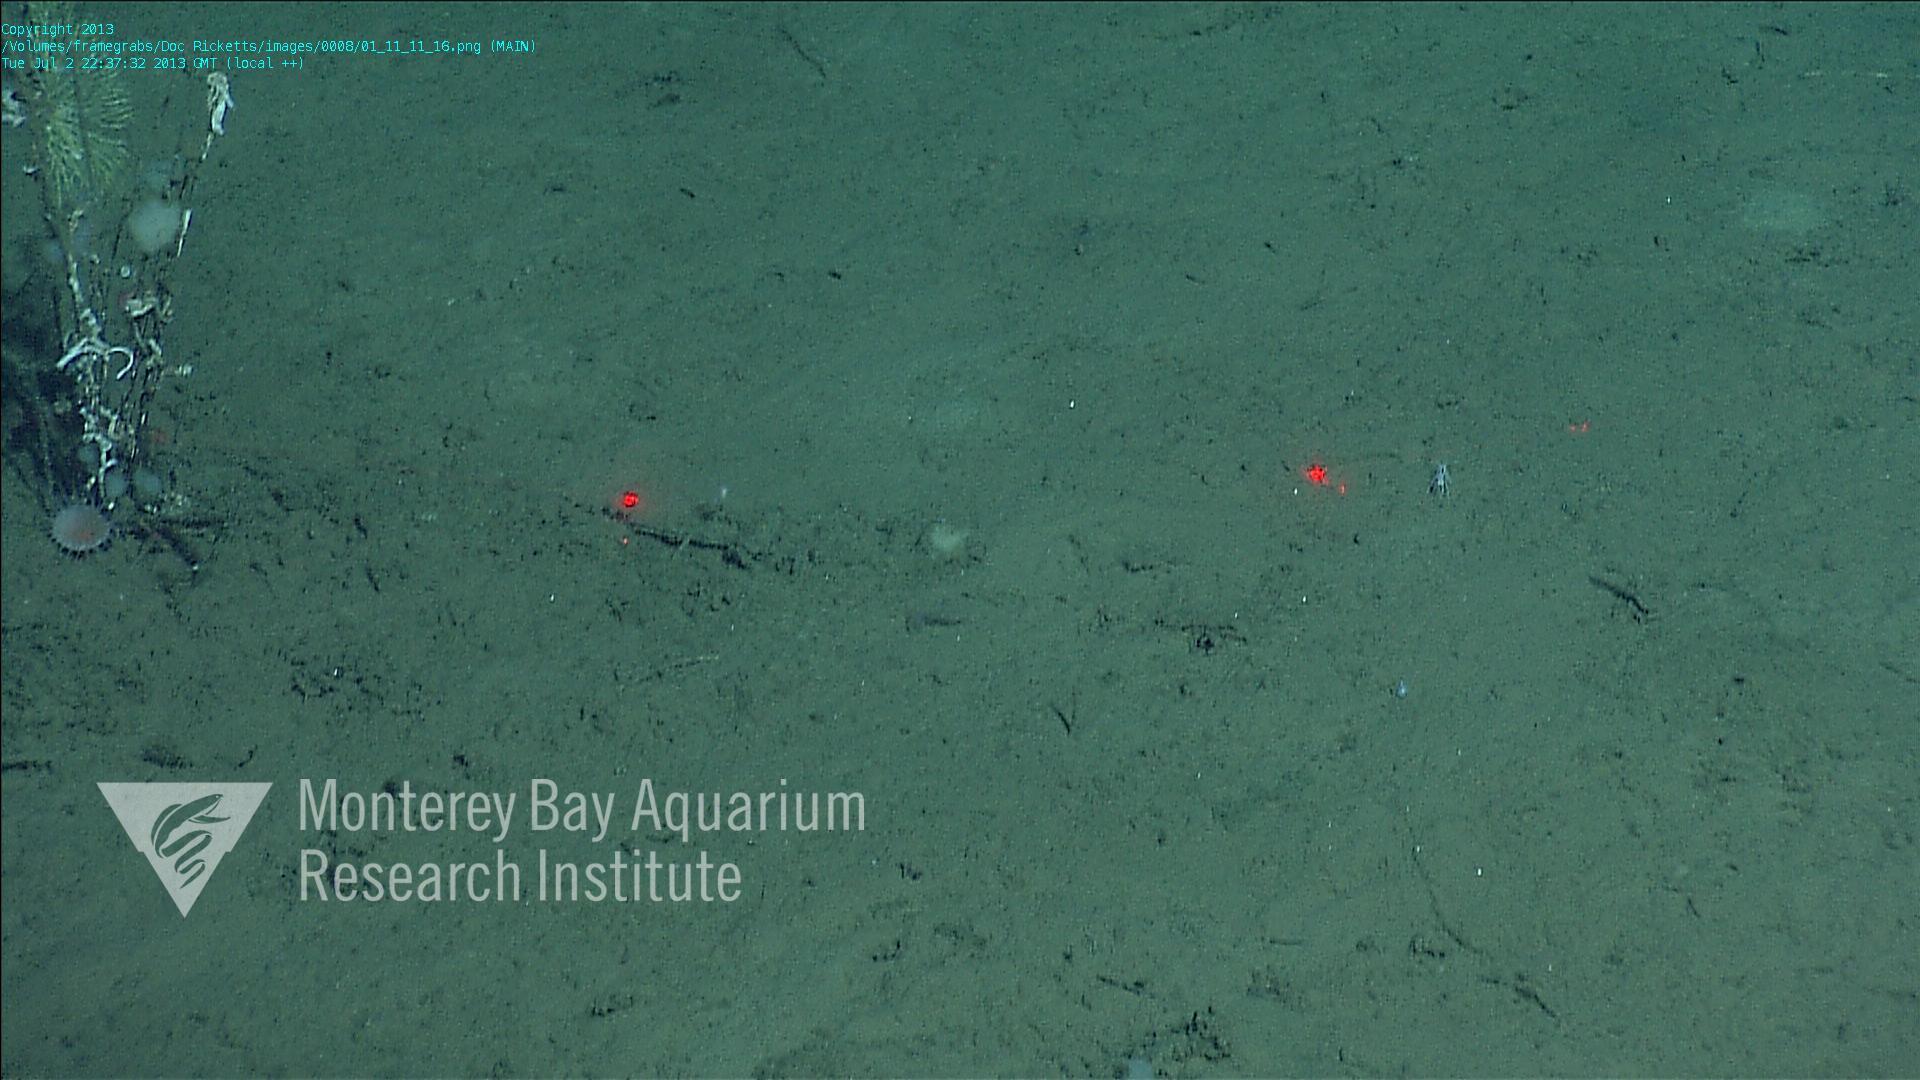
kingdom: Animalia
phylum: Porifera
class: Hexactinellida
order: Lyssacinosida
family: Rossellidae
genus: Bathydorus
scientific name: Bathydorus spinosus
